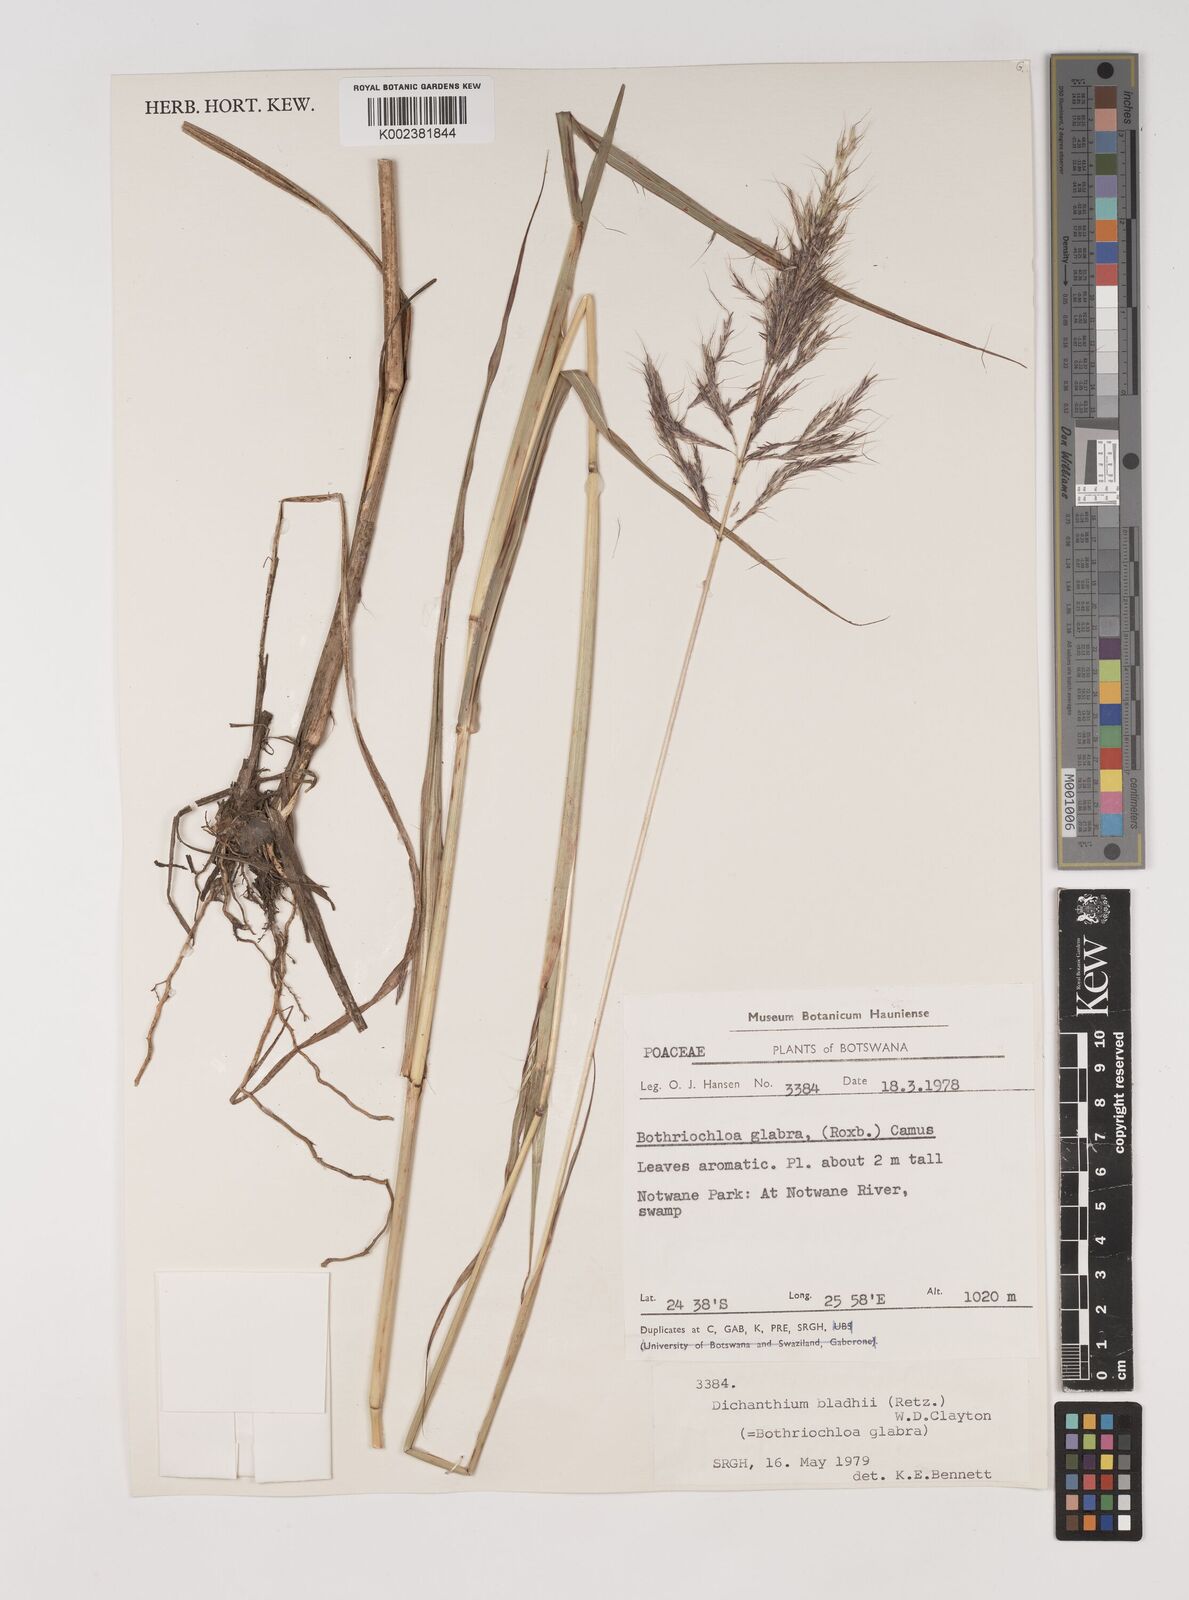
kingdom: Plantae
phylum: Tracheophyta
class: Liliopsida
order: Poales
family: Poaceae
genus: Bothriochloa
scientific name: Bothriochloa bladhii
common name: Caucasian bluestem
